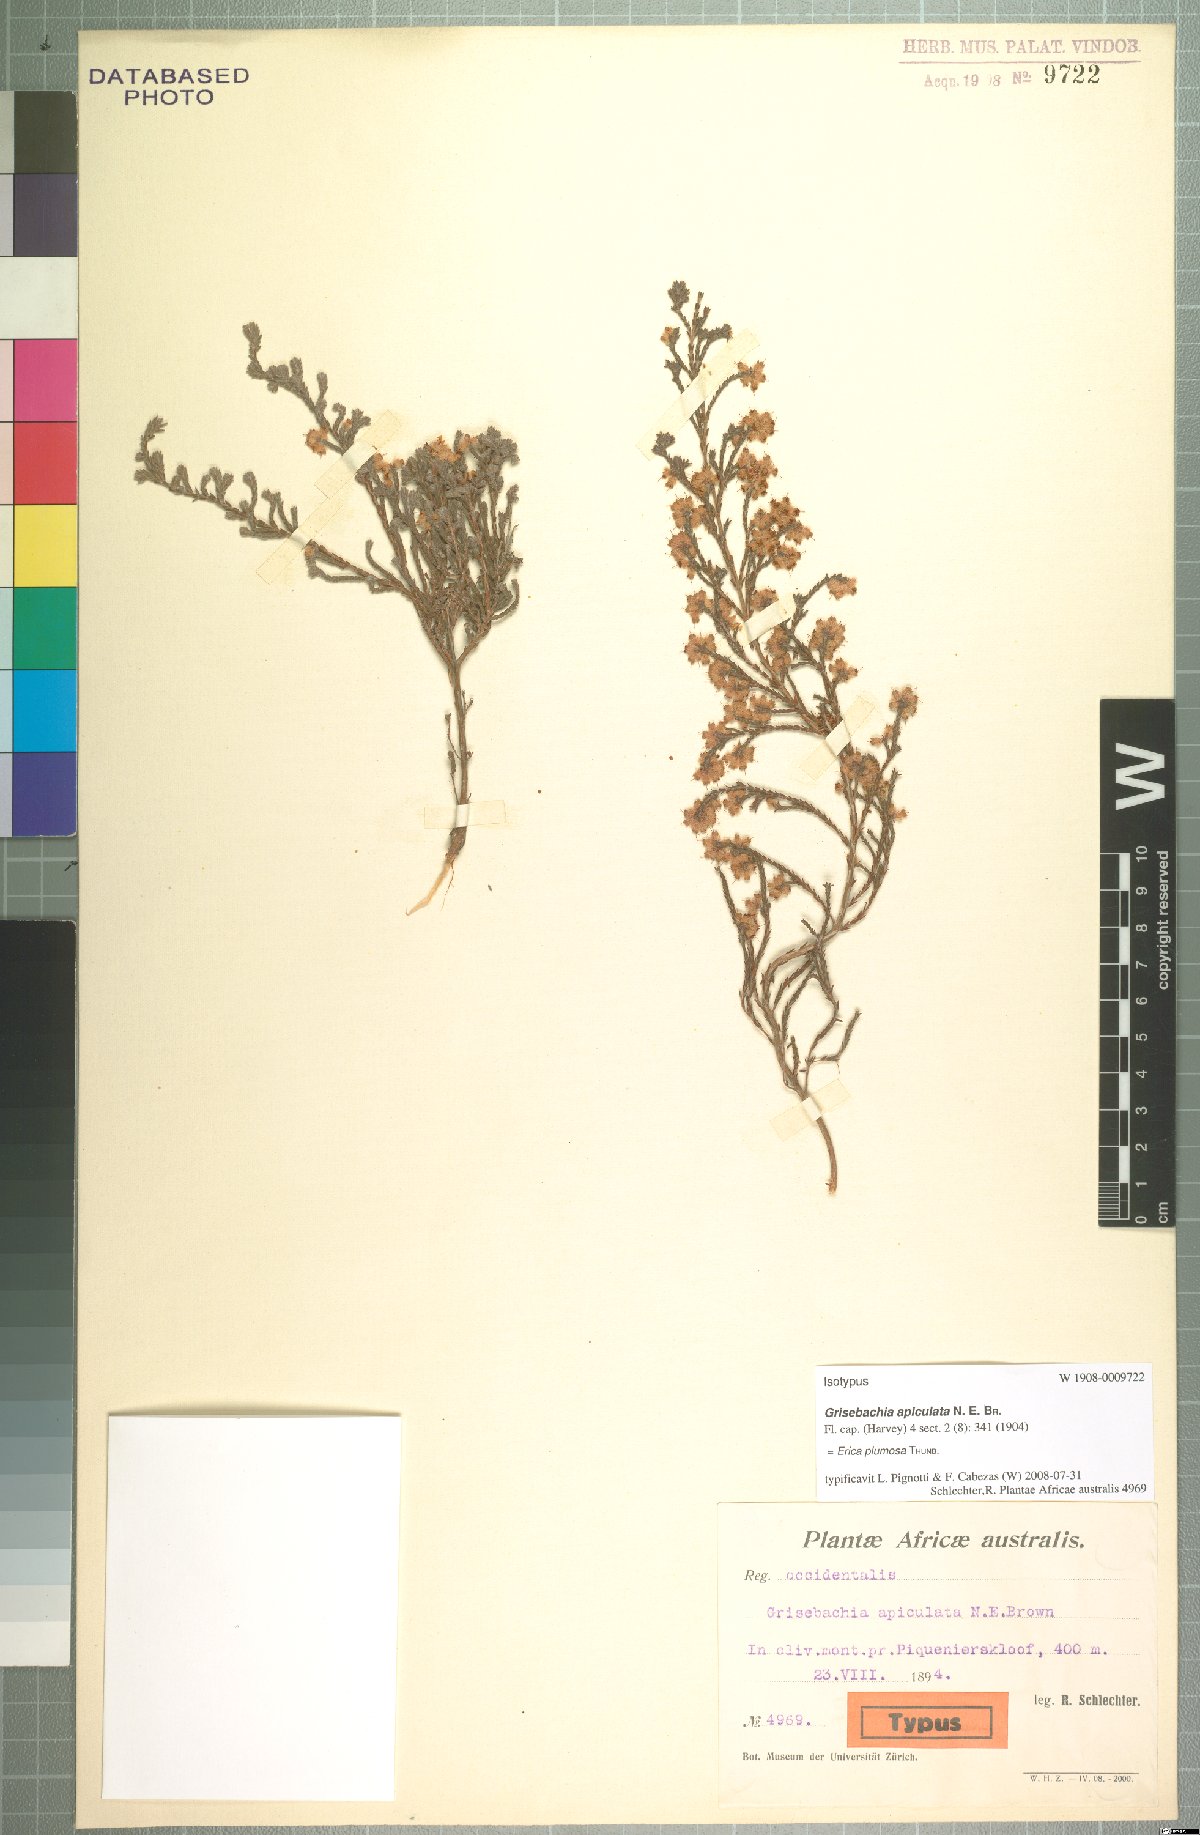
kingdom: Plantae
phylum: Tracheophyta
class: Magnoliopsida
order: Ericales
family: Ericaceae
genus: Erica
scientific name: Erica plumosa
